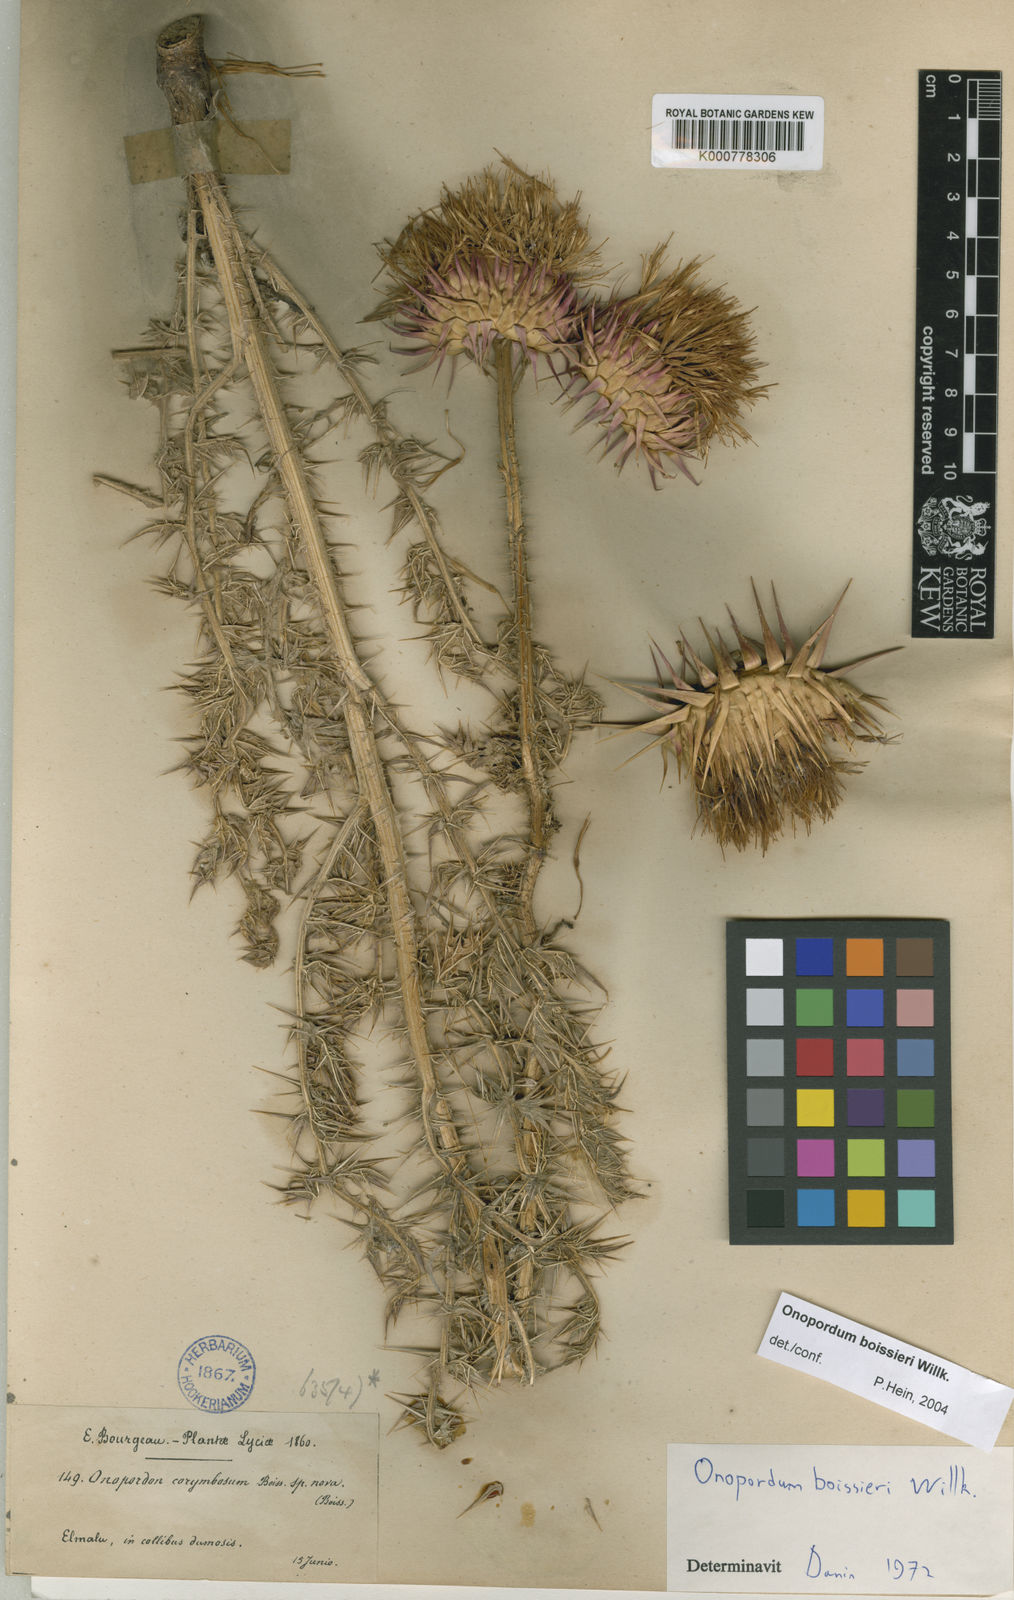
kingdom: Plantae
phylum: Tracheophyta
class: Magnoliopsida
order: Asterales
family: Asteraceae
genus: Onopordum
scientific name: Onopordum
